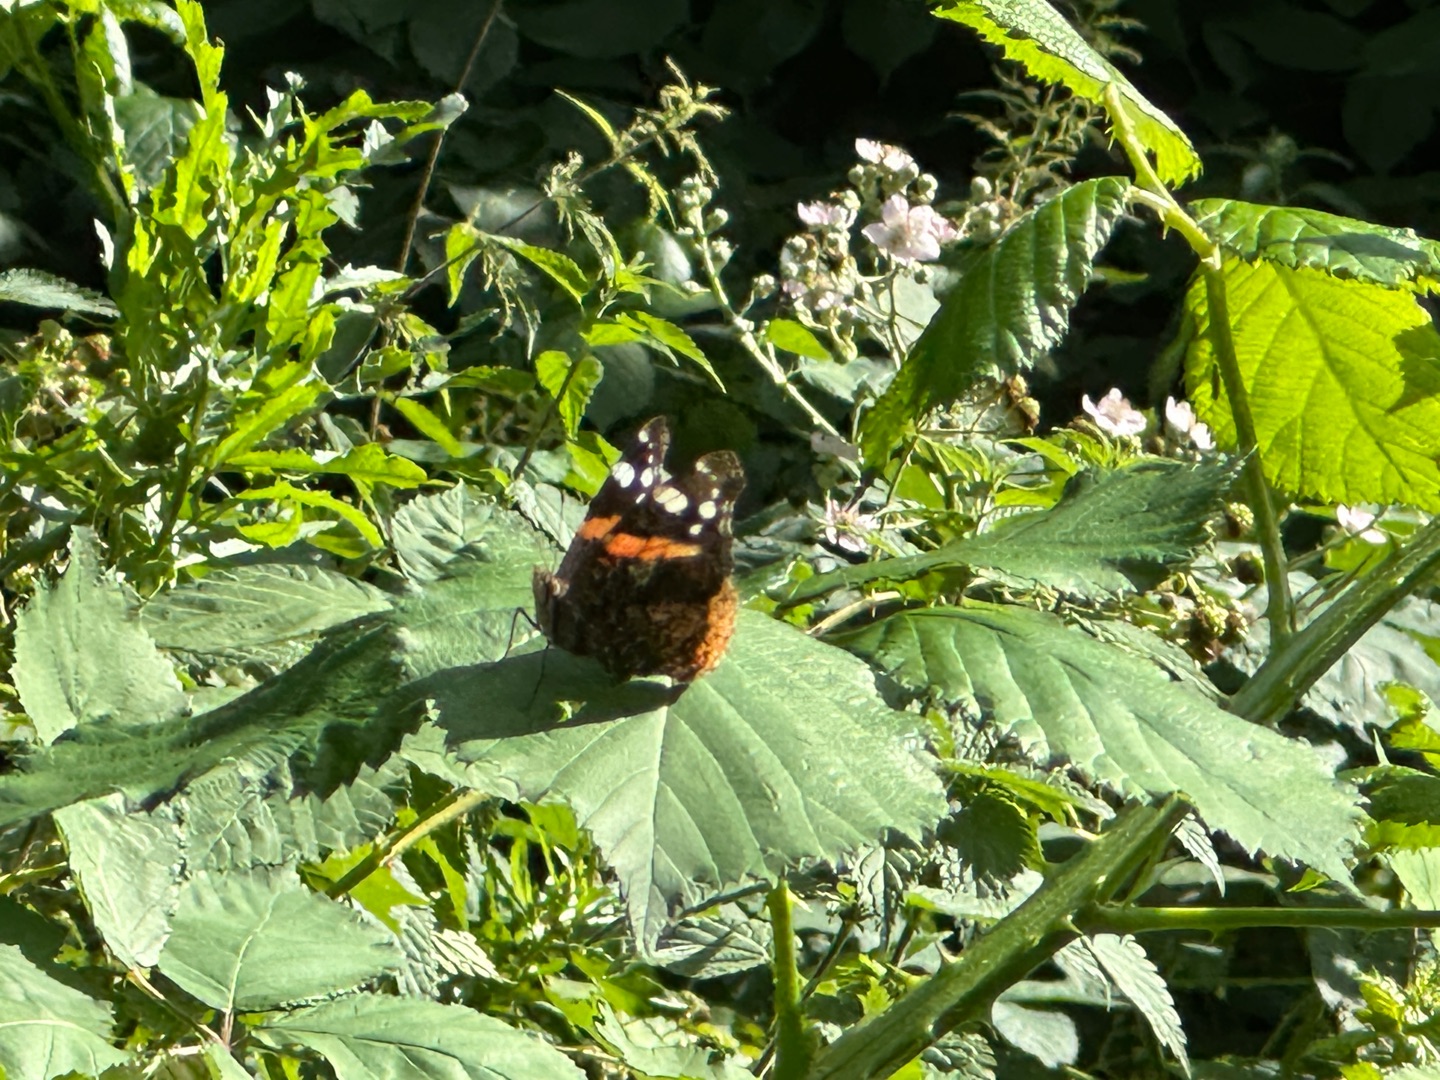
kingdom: Animalia
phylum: Arthropoda
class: Insecta
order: Lepidoptera
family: Nymphalidae
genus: Vanessa
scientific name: Vanessa atalanta
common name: Admiral
